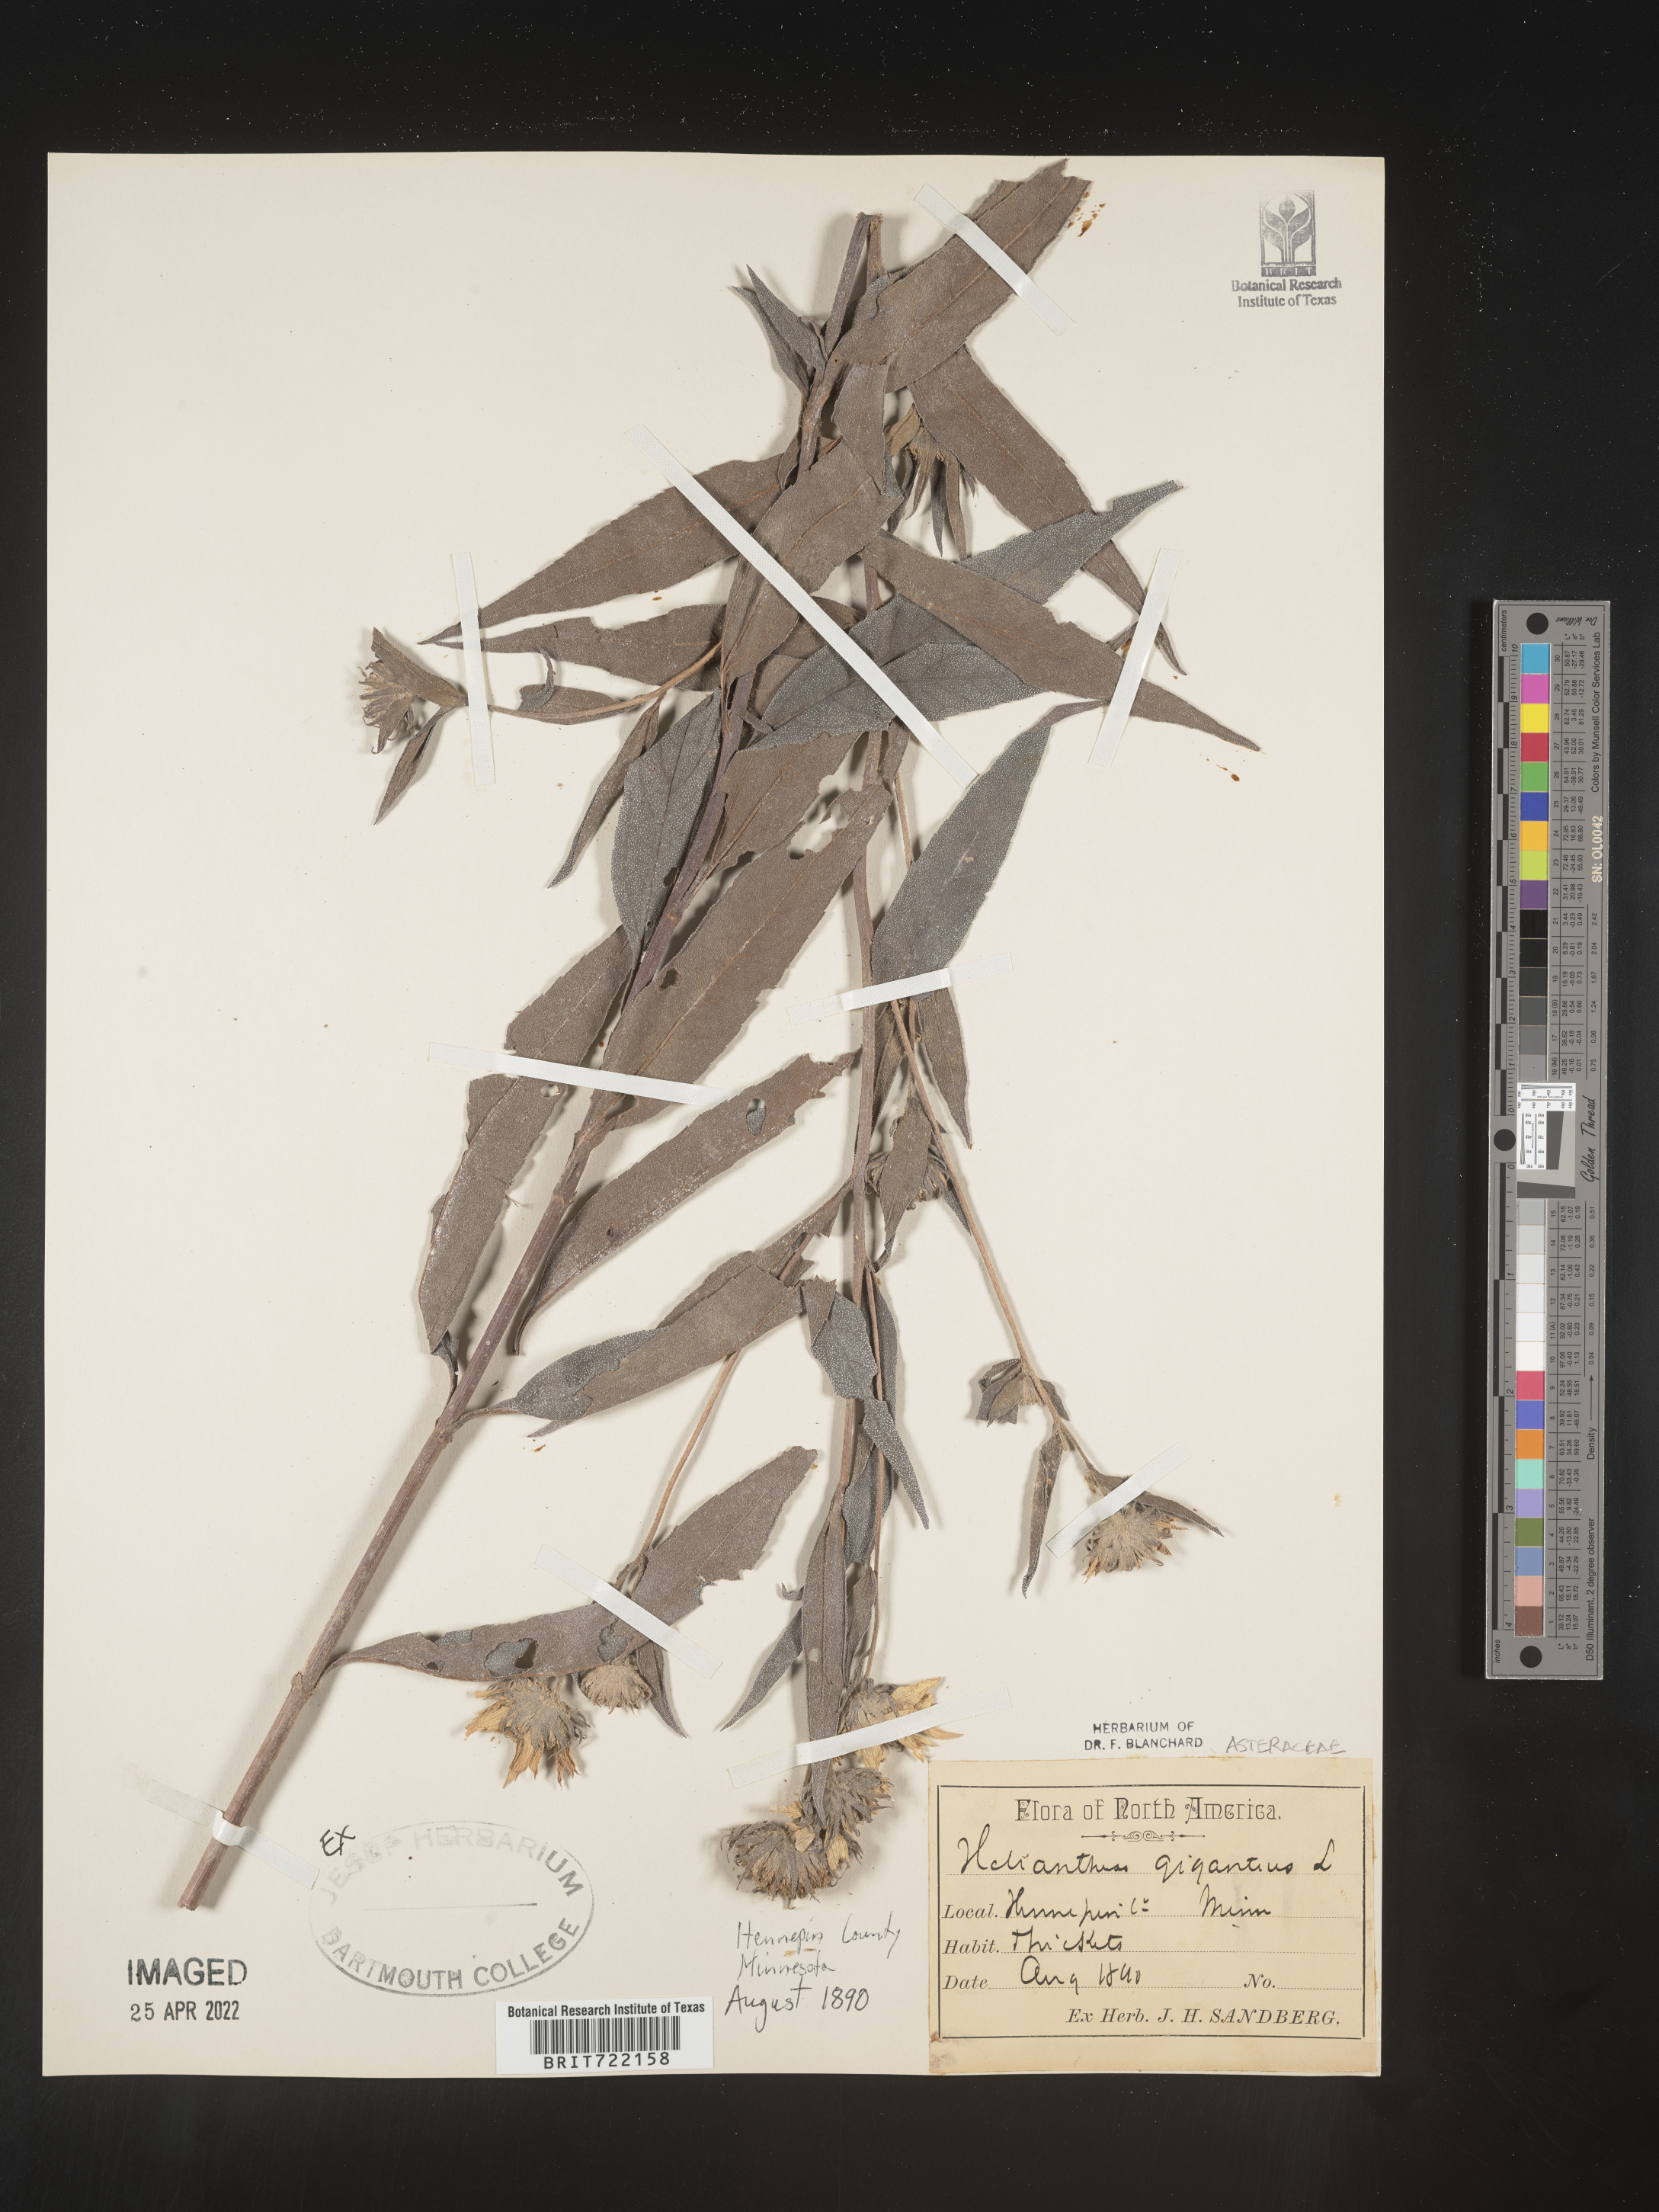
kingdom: Plantae
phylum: Tracheophyta
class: Magnoliopsida
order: Asterales
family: Asteraceae
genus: Helianthus
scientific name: Helianthus giganteus
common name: Giant sunflower
